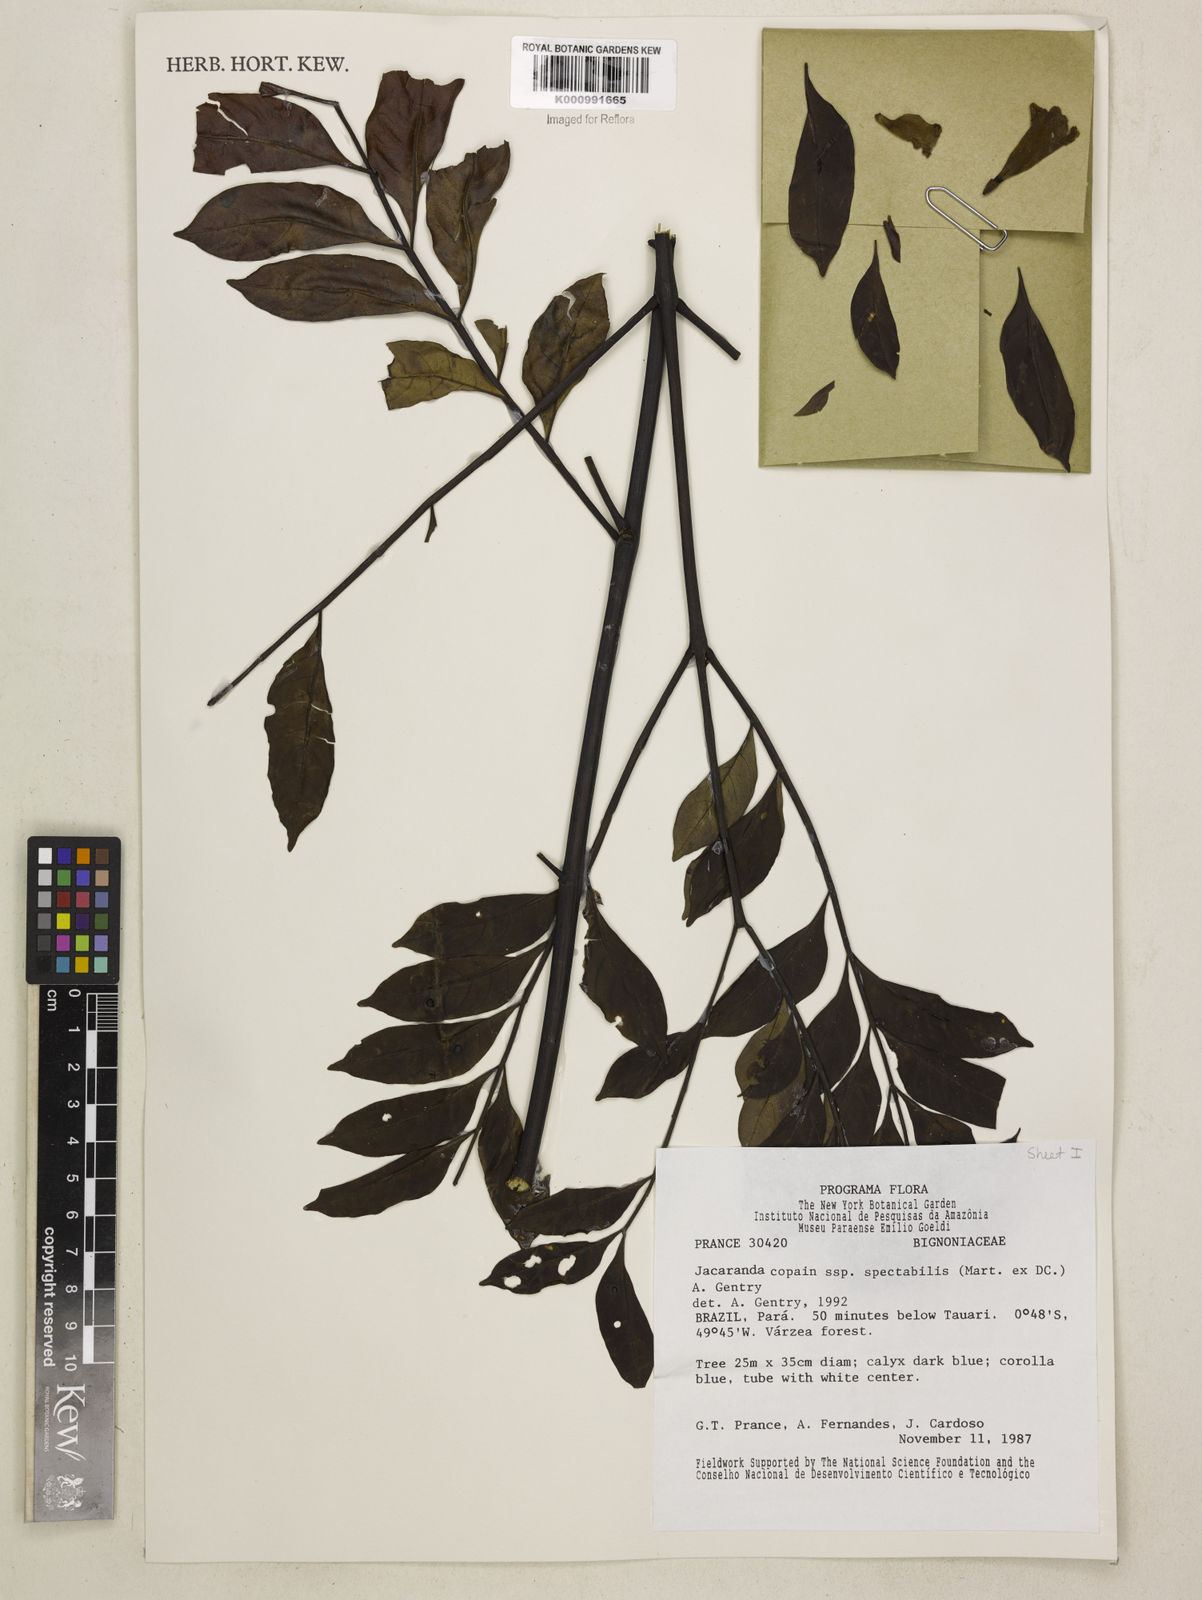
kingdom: Plantae
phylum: Tracheophyta
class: Magnoliopsida
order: Lamiales
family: Bignoniaceae
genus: Jacaranda
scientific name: Jacaranda copaia
